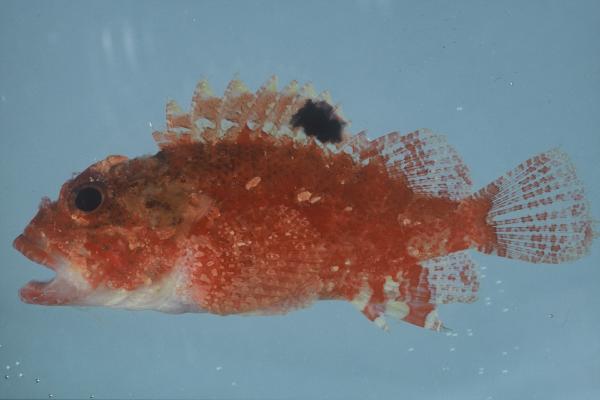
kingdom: Animalia
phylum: Chordata
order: Scorpaeniformes
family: Scorpaenidae
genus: Parascorpaena
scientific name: Parascorpaena mcadamsi
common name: Ocellated scorpionfish
